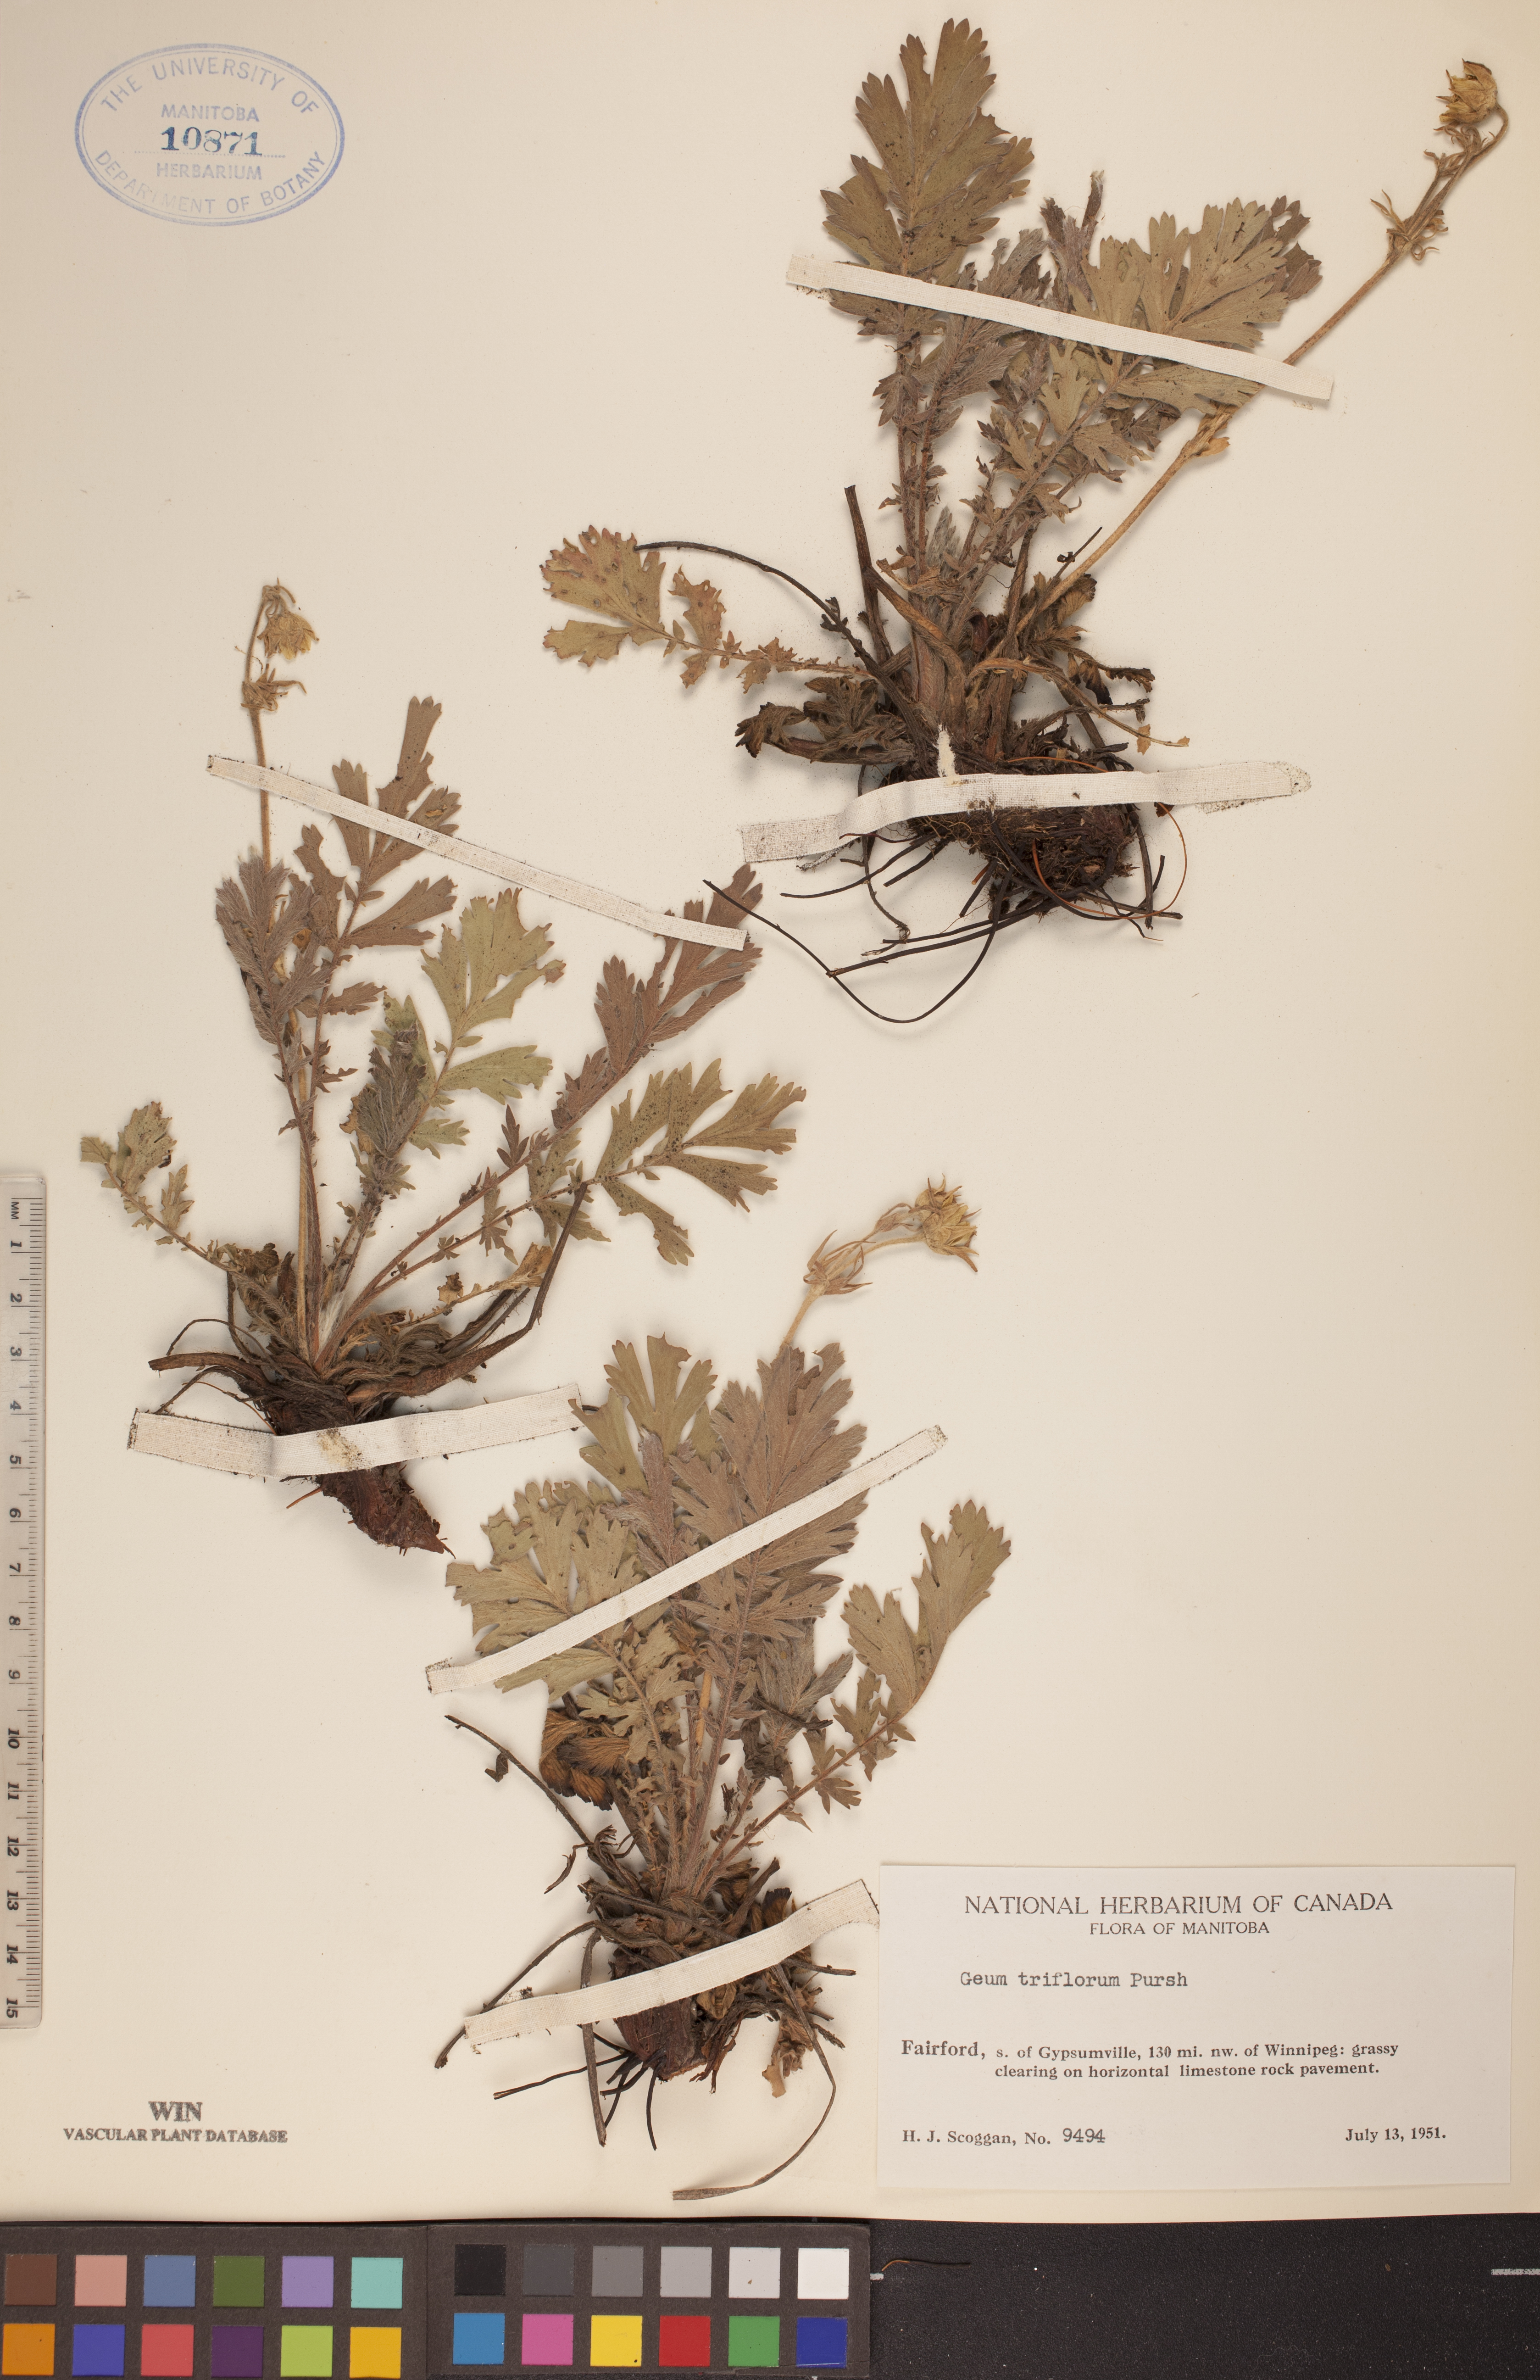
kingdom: Plantae
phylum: Tracheophyta
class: Magnoliopsida
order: Rosales
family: Rosaceae
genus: Geum
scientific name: Geum triflorum
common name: Old man's whiskers
